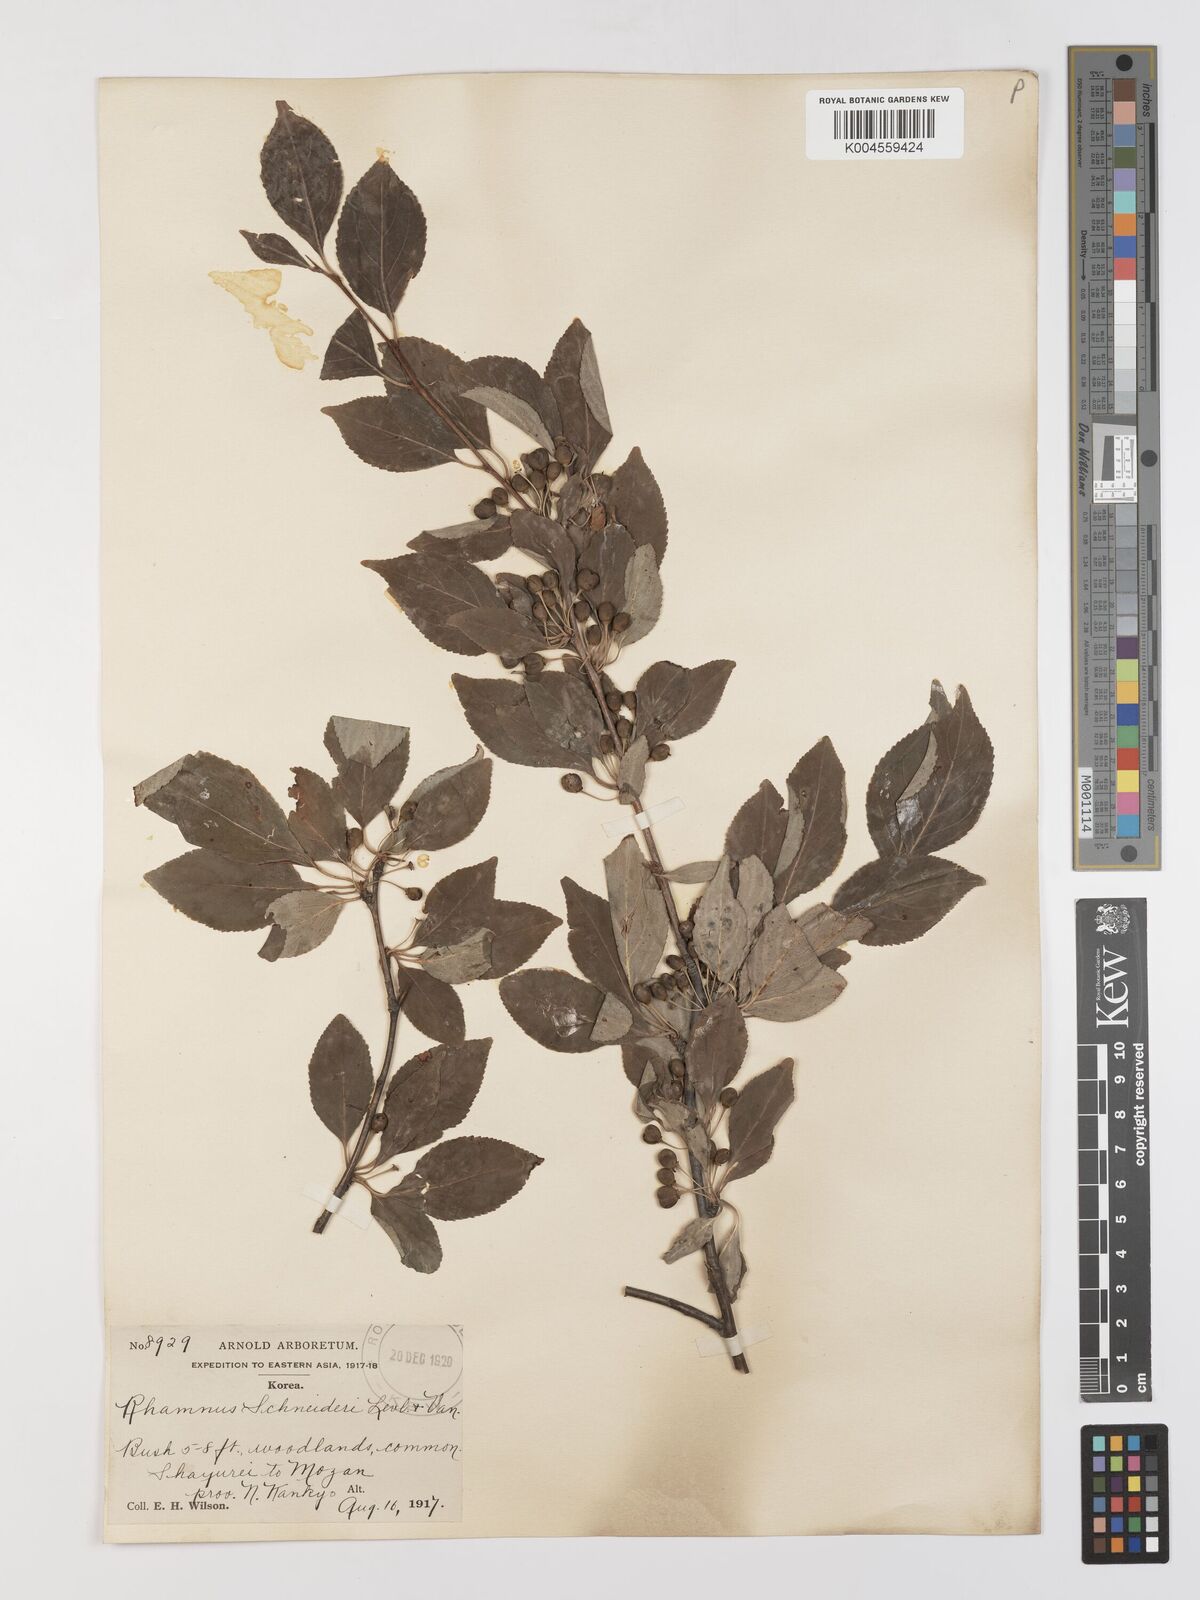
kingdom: Plantae
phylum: Tracheophyta
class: Magnoliopsida
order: Rosales
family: Rhamnaceae
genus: Rhamnus
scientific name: Rhamnus schneideri
